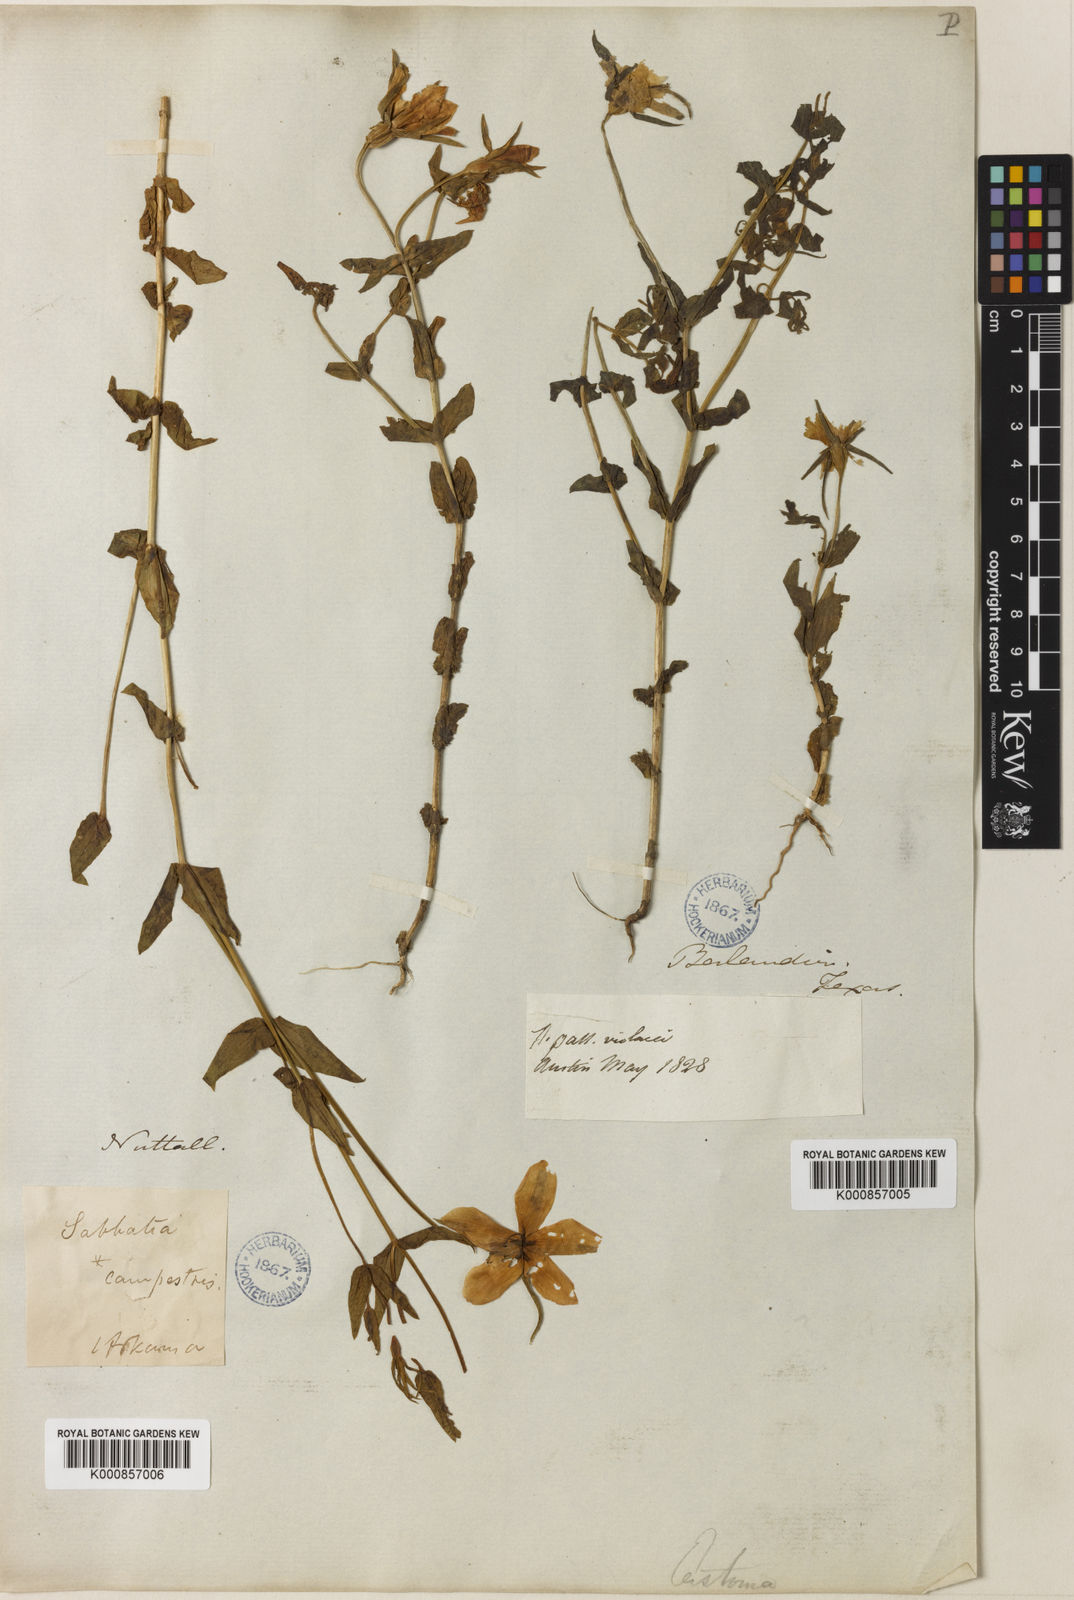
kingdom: Plantae
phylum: Tracheophyta
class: Magnoliopsida
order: Gentianales
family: Gentianaceae
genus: Sabatia
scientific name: Sabatia campestris
